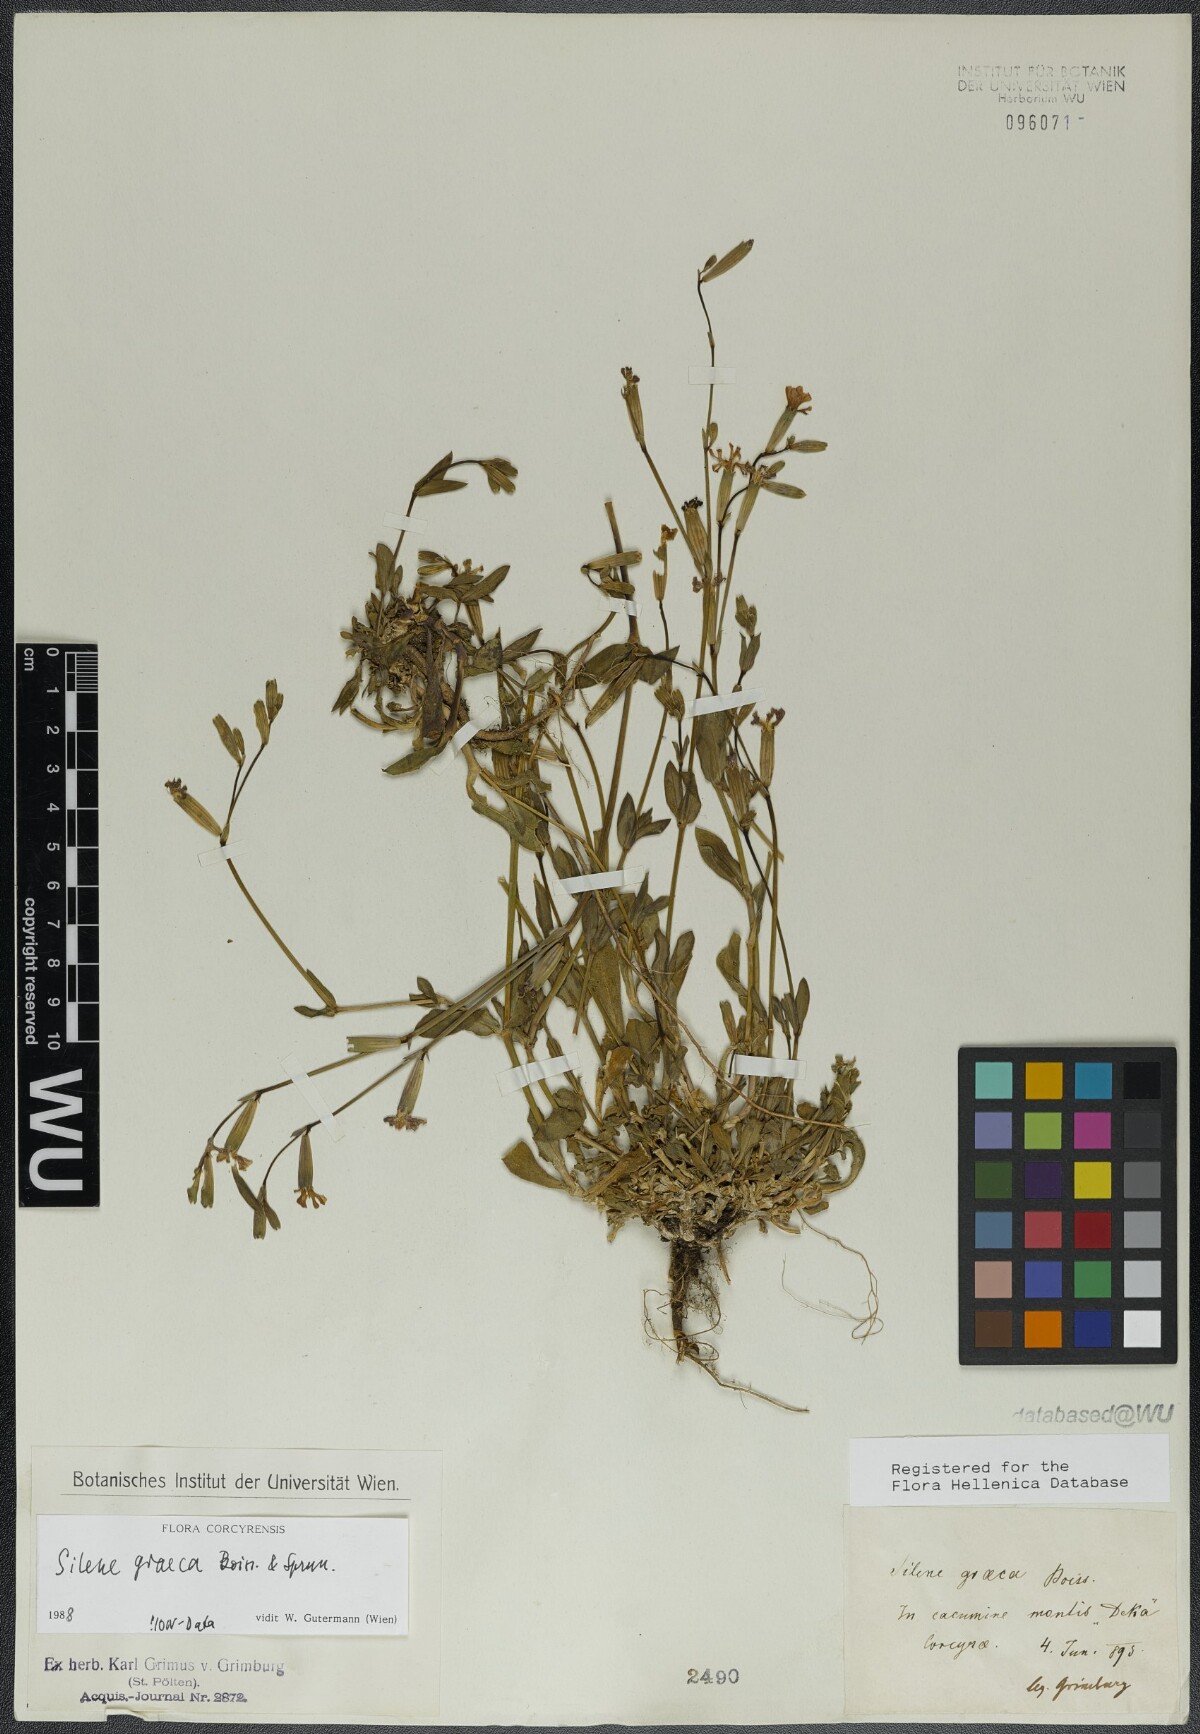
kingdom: Plantae
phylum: Tracheophyta
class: Magnoliopsida
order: Caryophyllales
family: Caryophyllaceae
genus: Silene
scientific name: Silene graeca
